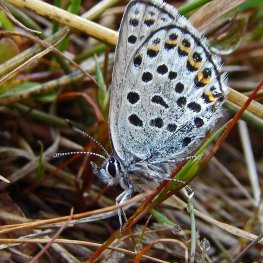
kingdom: Animalia
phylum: Arthropoda
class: Insecta
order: Lepidoptera
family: Lycaenidae
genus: Lycaeides
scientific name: Lycaeides idas
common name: Northern Blue
